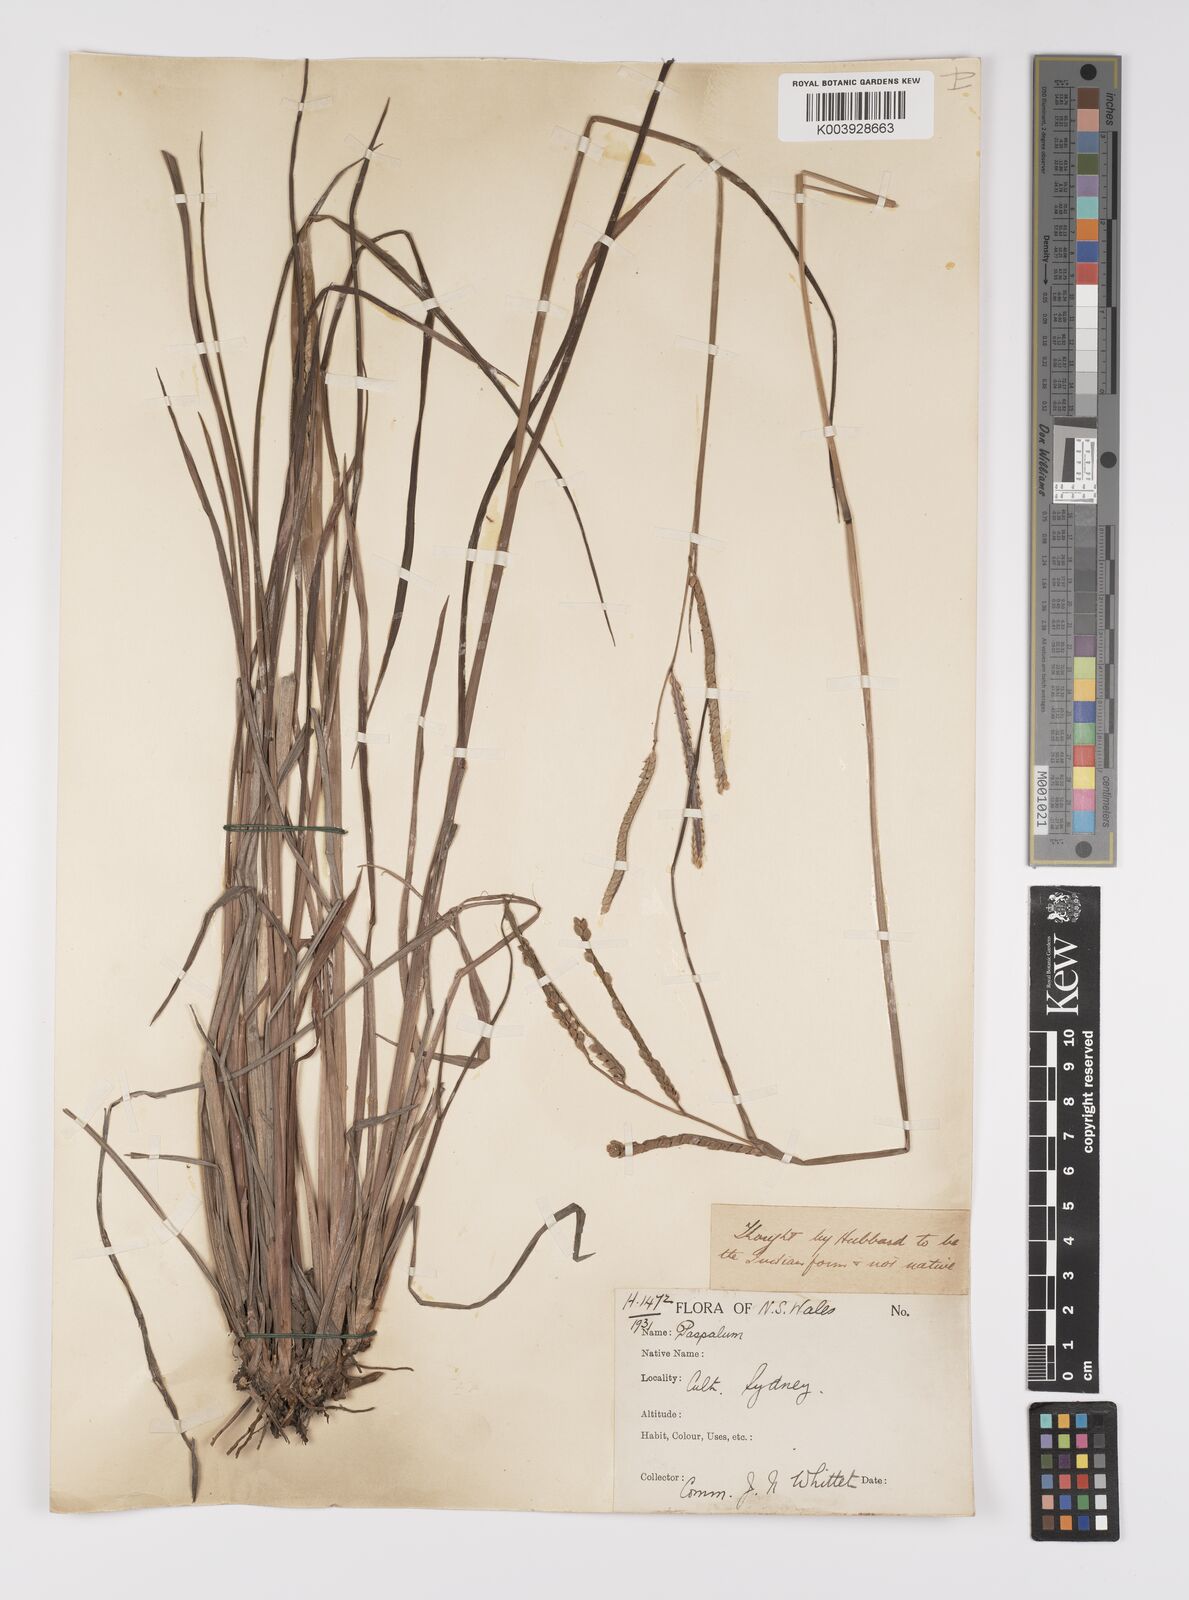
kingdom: Plantae
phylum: Tracheophyta
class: Liliopsida
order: Poales
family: Poaceae
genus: Paspalum
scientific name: Paspalum scrobiculatum
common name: Kodo millet
